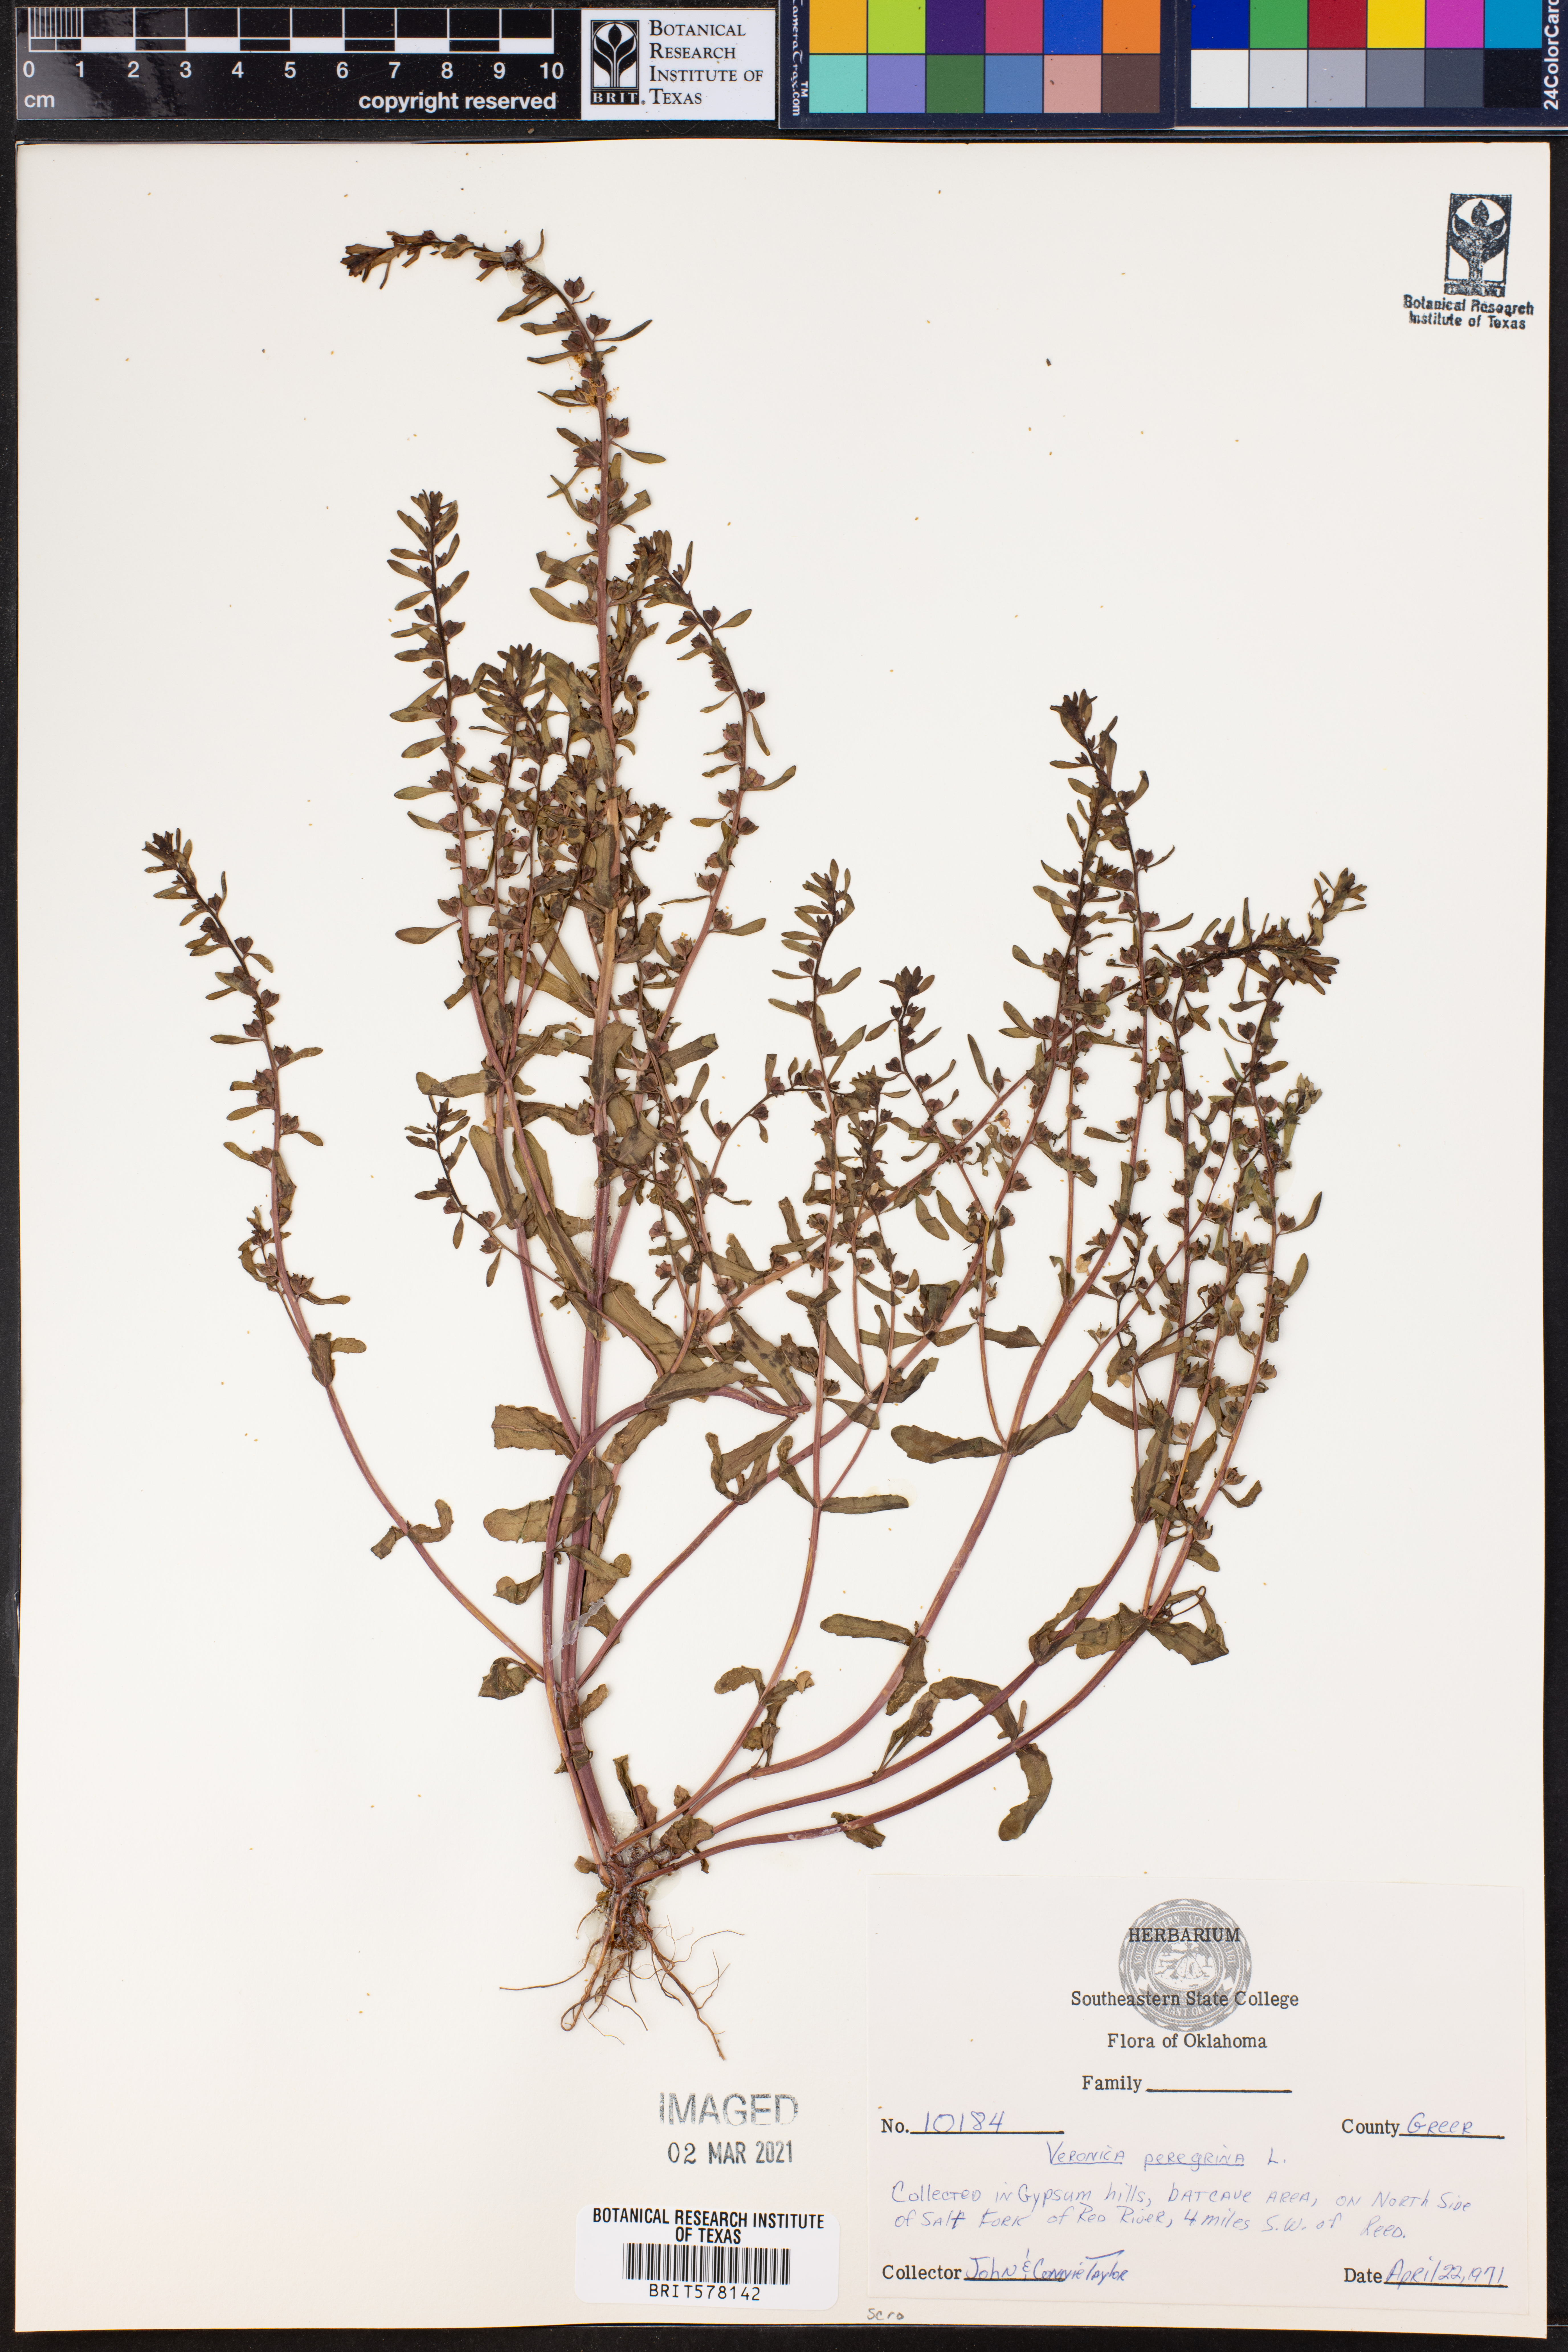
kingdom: Plantae
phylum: Tracheophyta
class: Magnoliopsida
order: Lamiales
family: Plantaginaceae
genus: Veronica
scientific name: Veronica peregrina
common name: Neckweed
